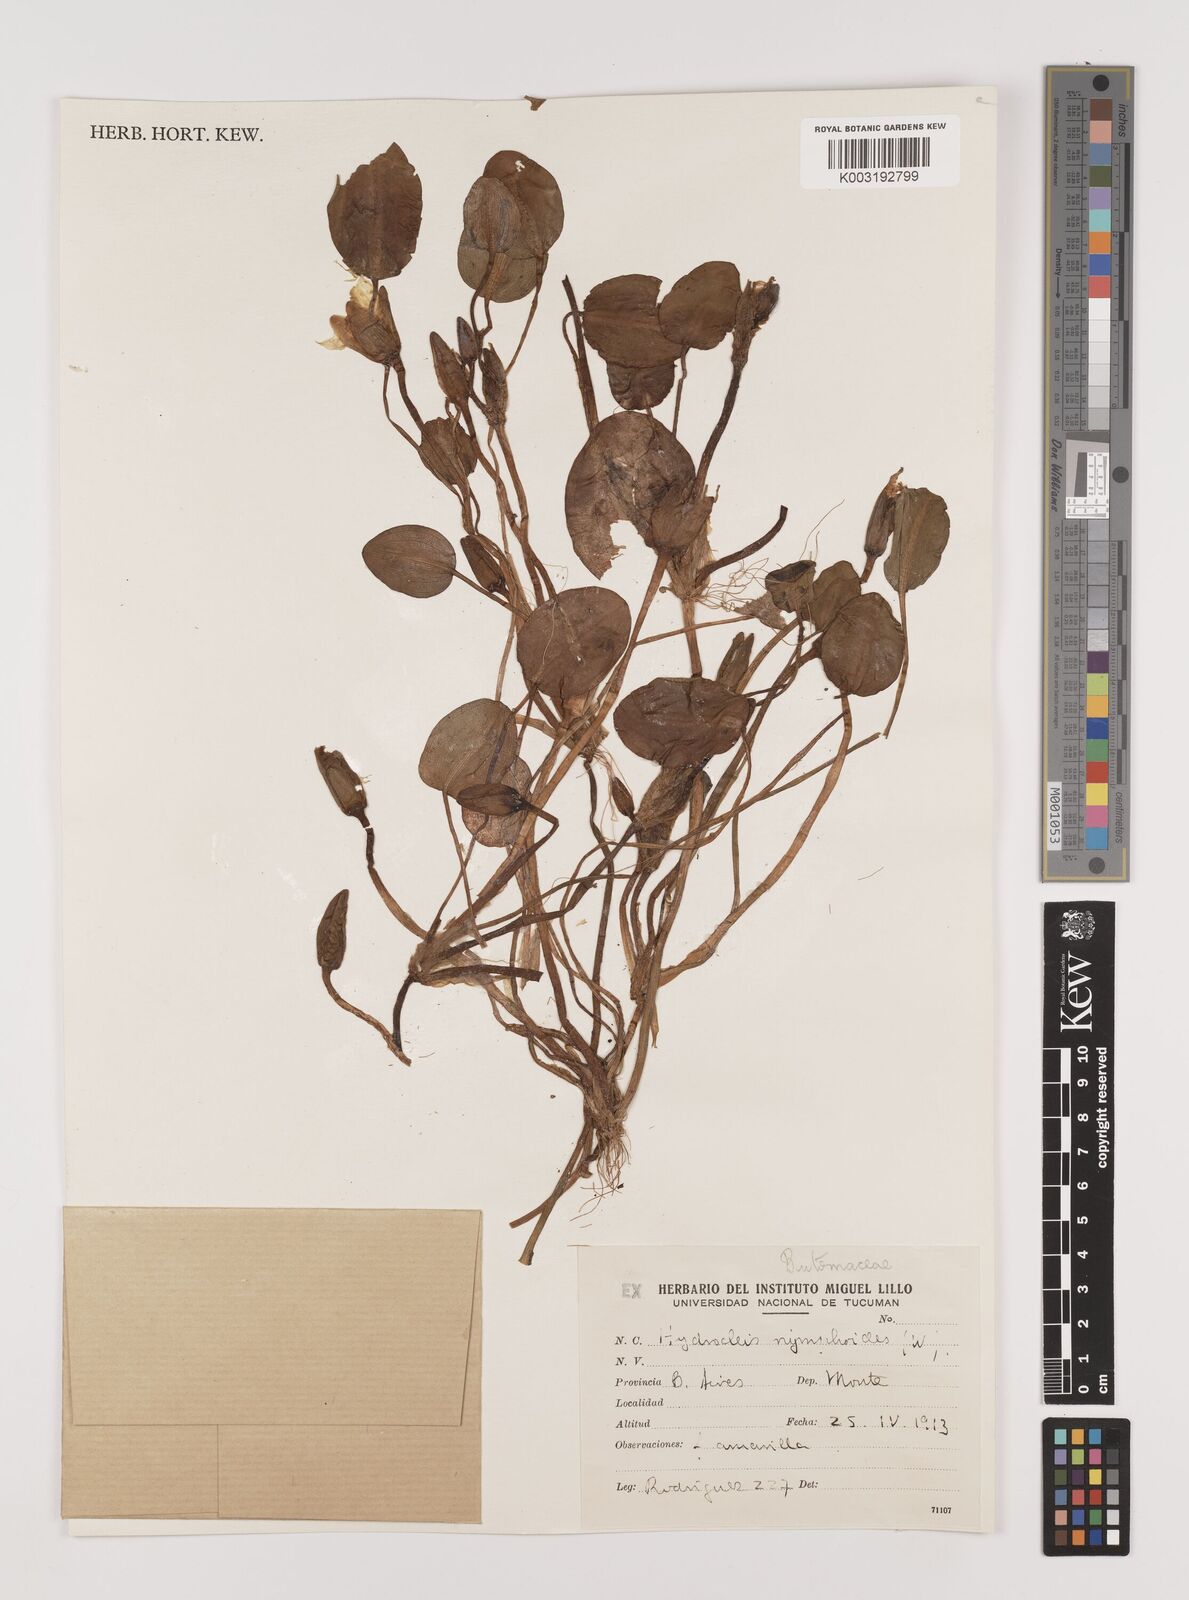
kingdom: Plantae
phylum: Tracheophyta
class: Liliopsida
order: Alismatales
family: Alismataceae
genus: Hydrocleys
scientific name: Hydrocleys nymphoides
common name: Water-poppy
